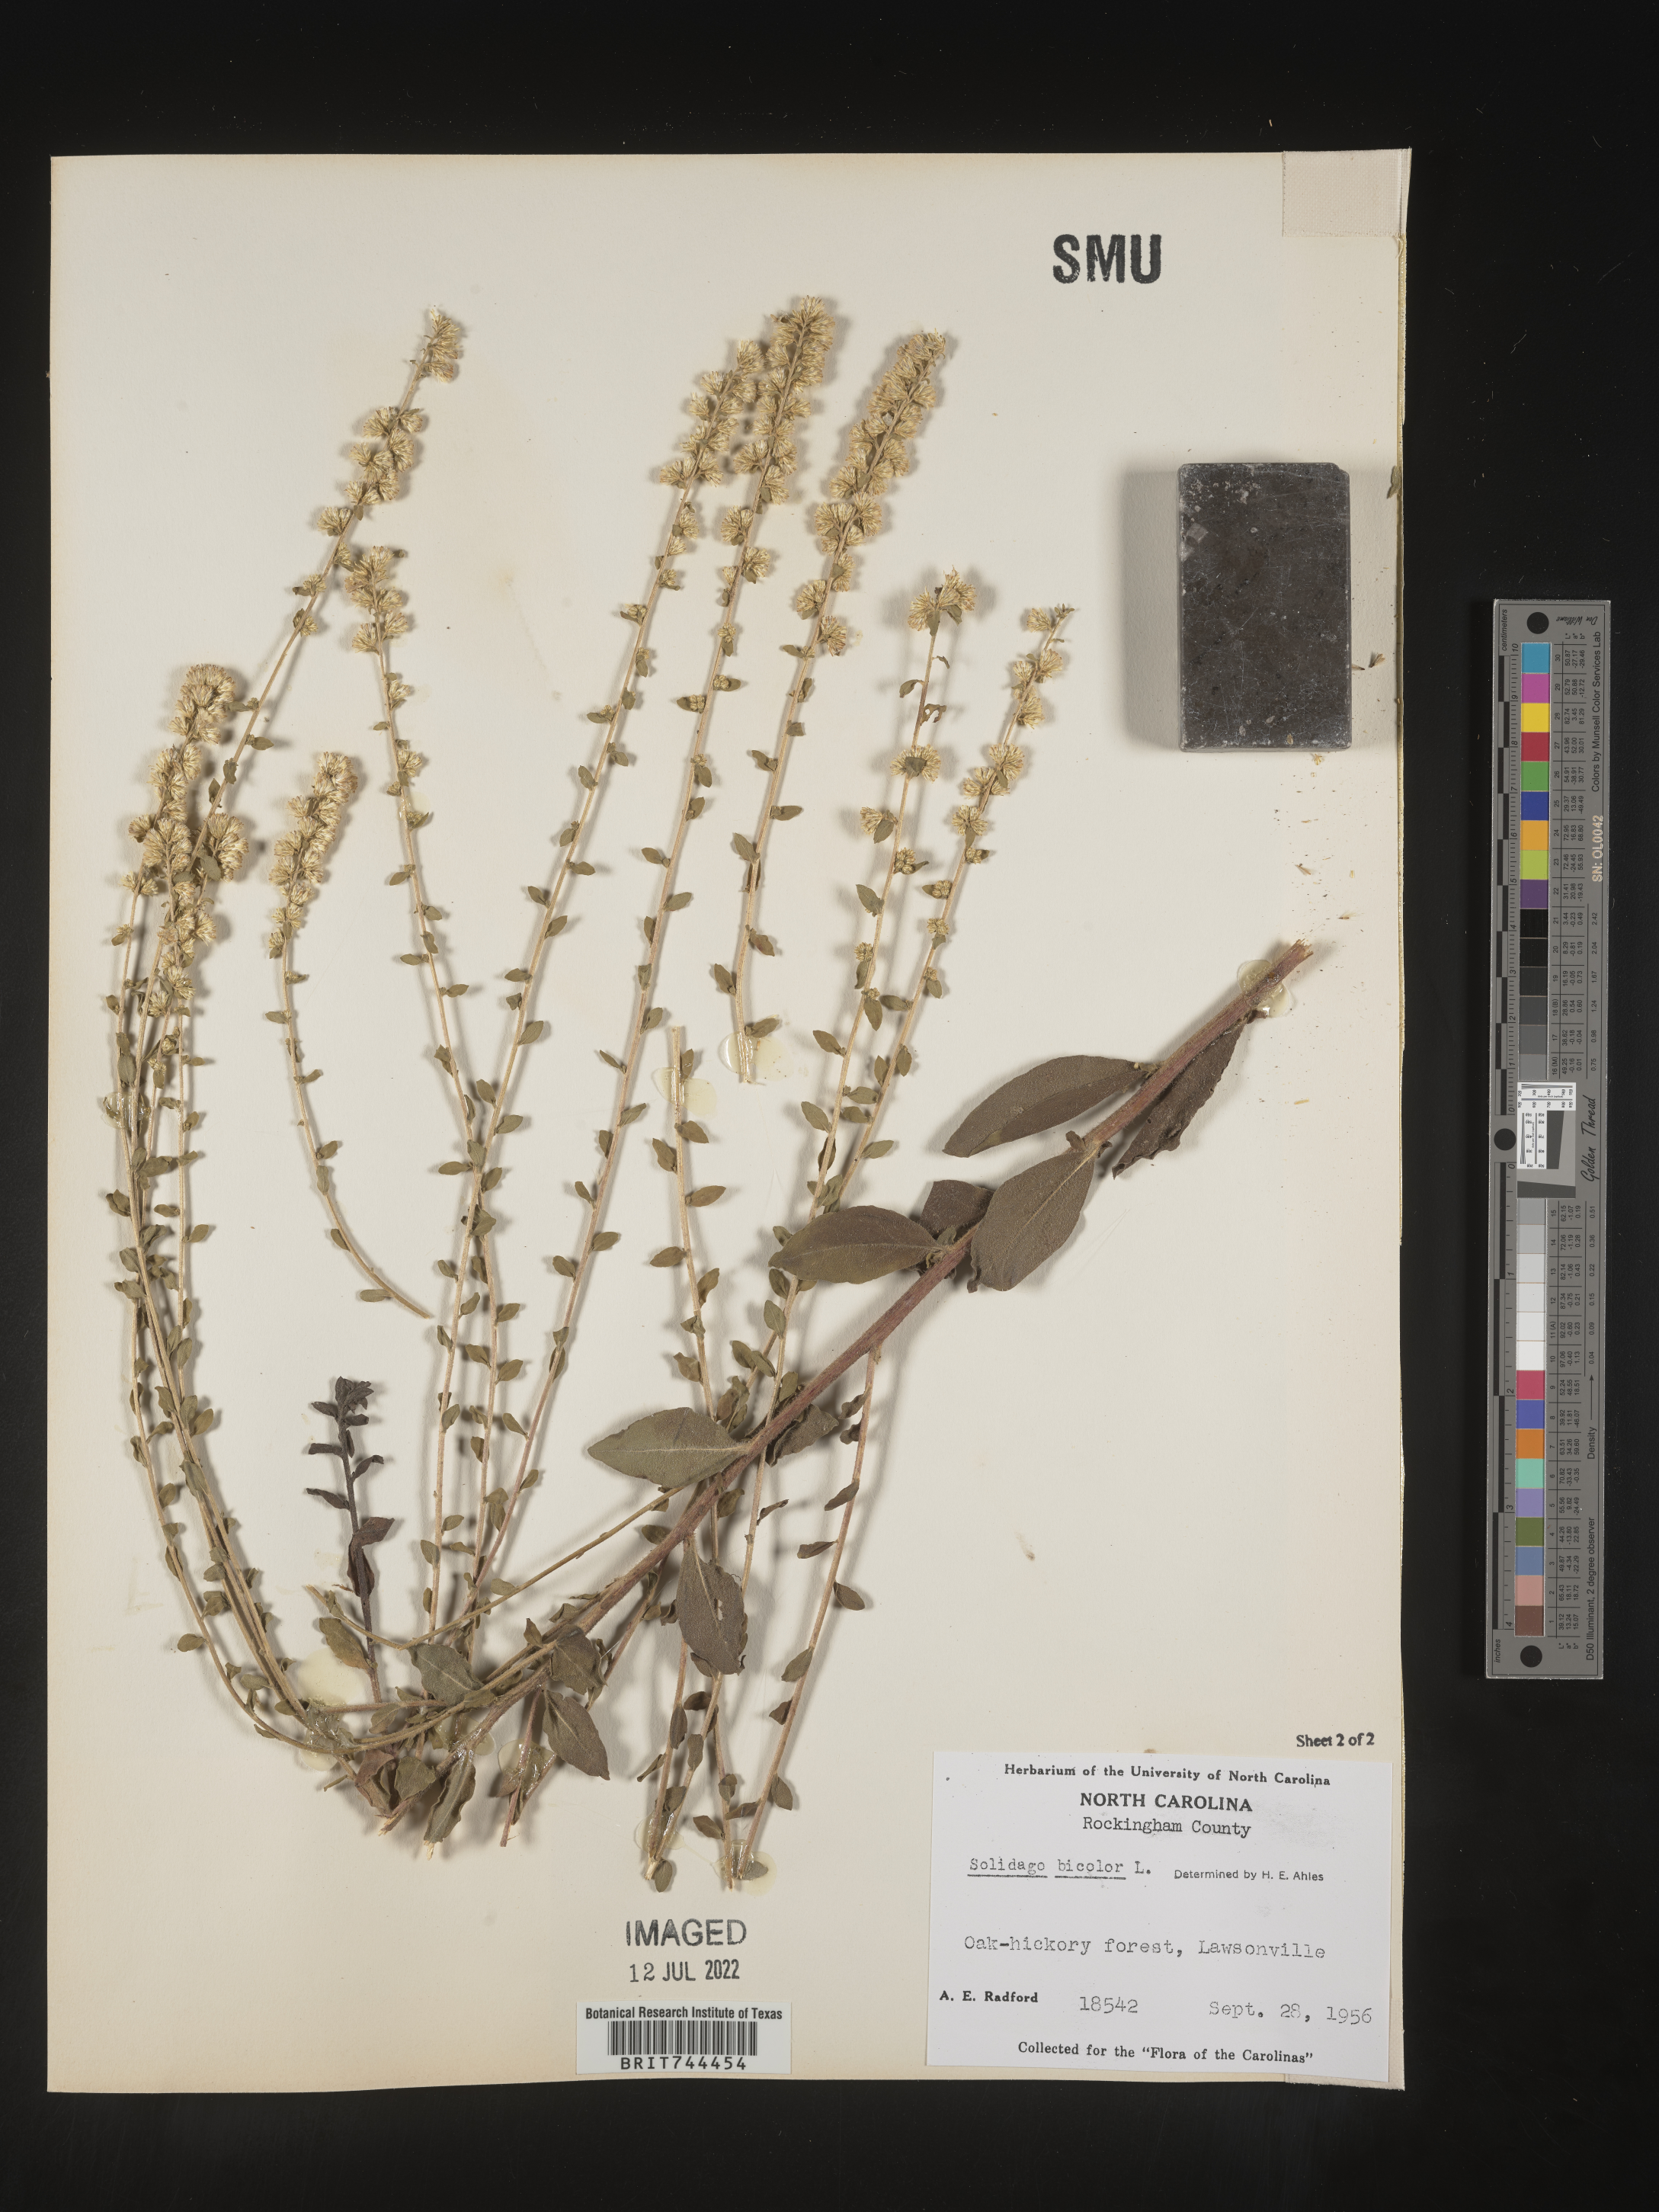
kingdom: Plantae
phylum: Tracheophyta
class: Magnoliopsida
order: Asterales
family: Asteraceae
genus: Solidago
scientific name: Solidago bicolor
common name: Silverrod
